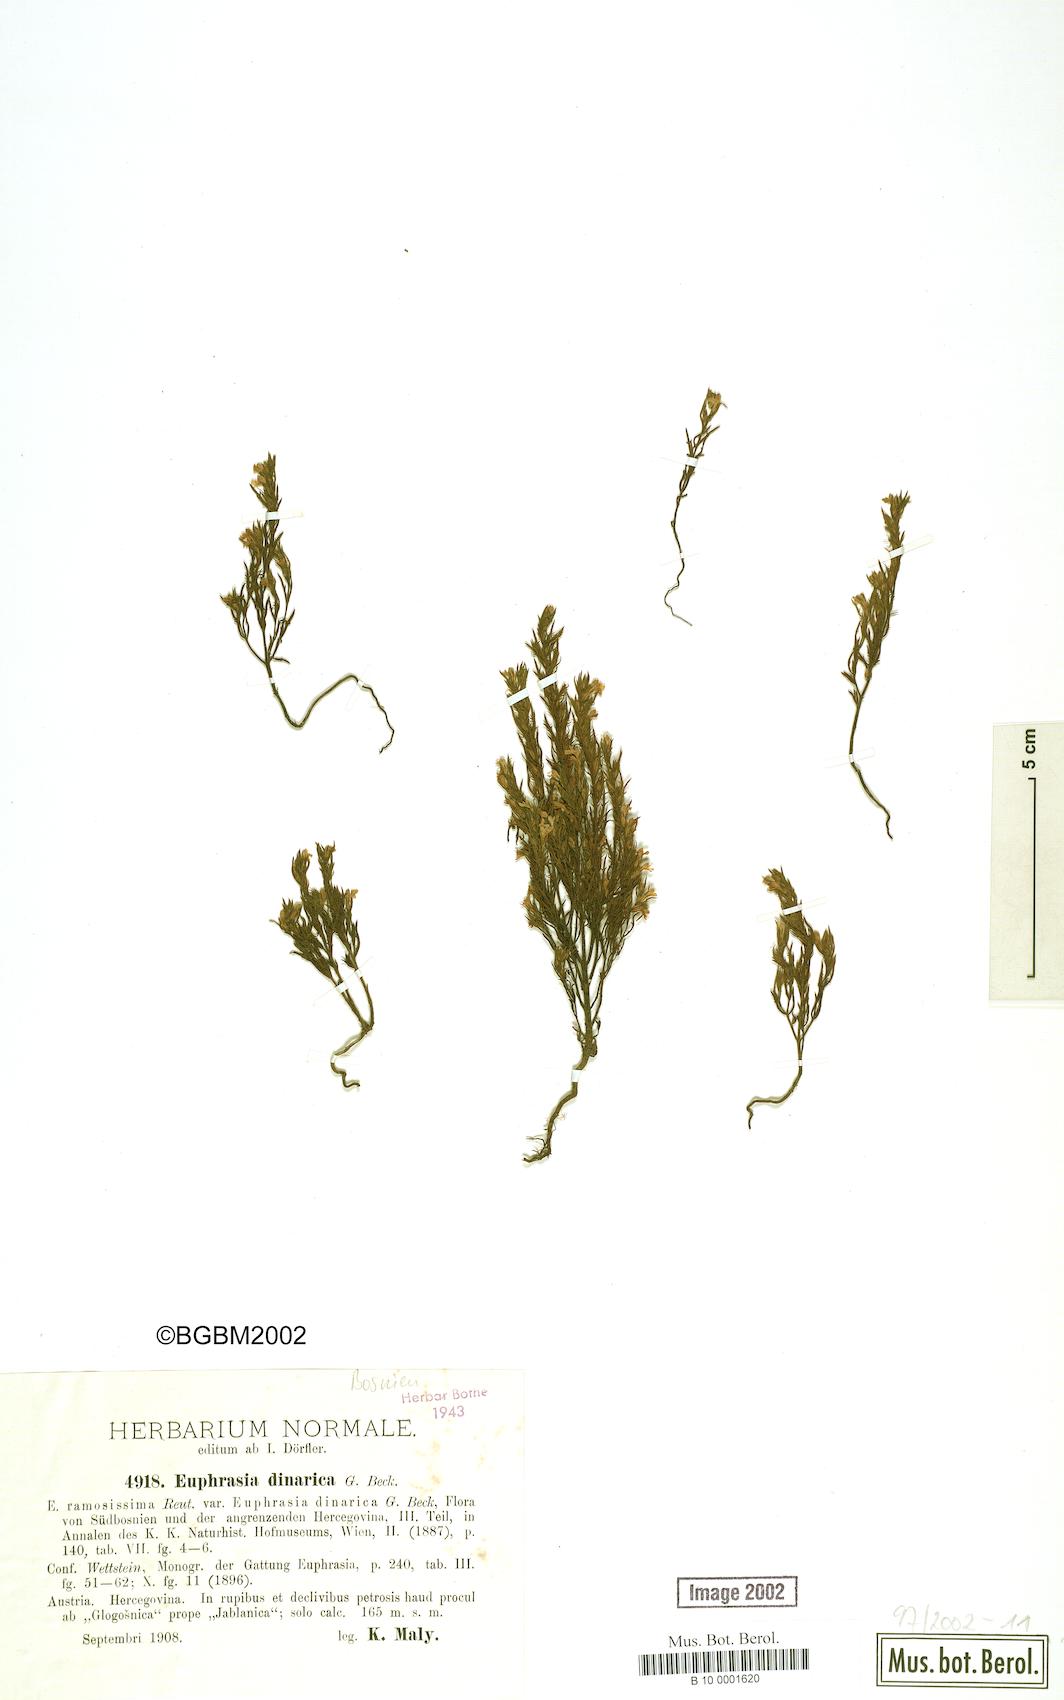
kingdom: Plantae
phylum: Tracheophyta
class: Magnoliopsida
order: Lamiales
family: Orobanchaceae
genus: Euphrasia
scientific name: Euphrasia dinarica
